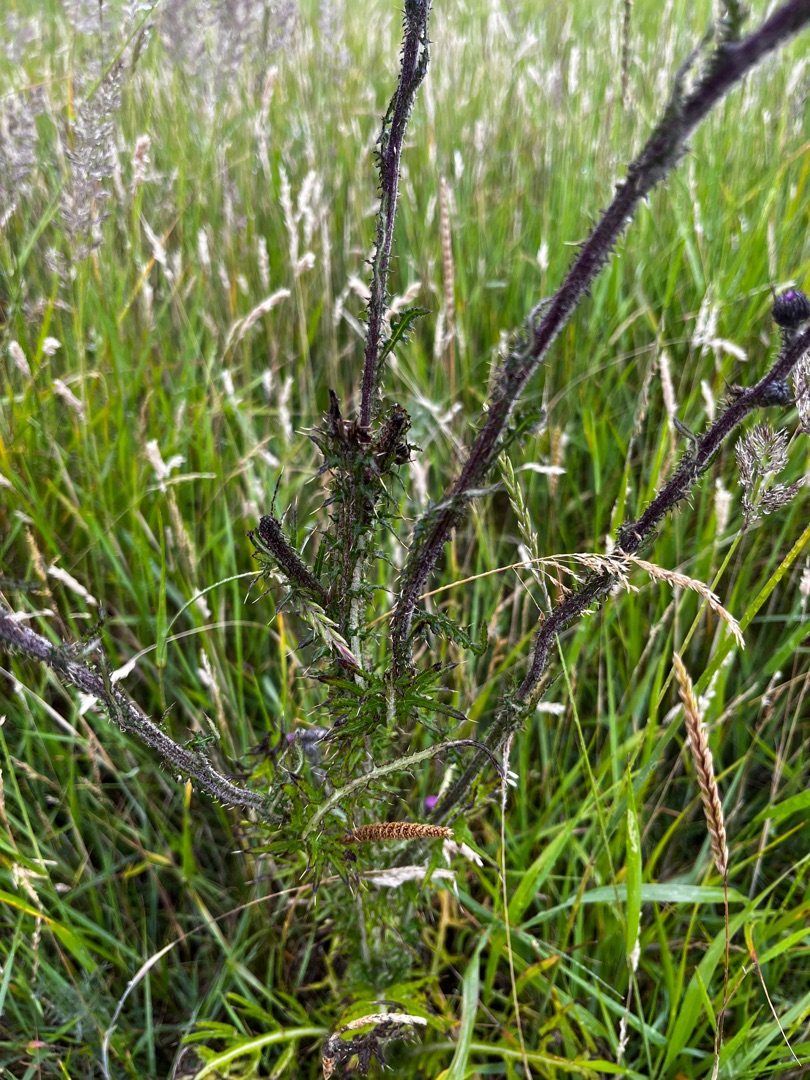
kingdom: Plantae
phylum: Tracheophyta
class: Magnoliopsida
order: Asterales
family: Asteraceae
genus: Cirsium
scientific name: Cirsium palustre
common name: Kær-tidsel
